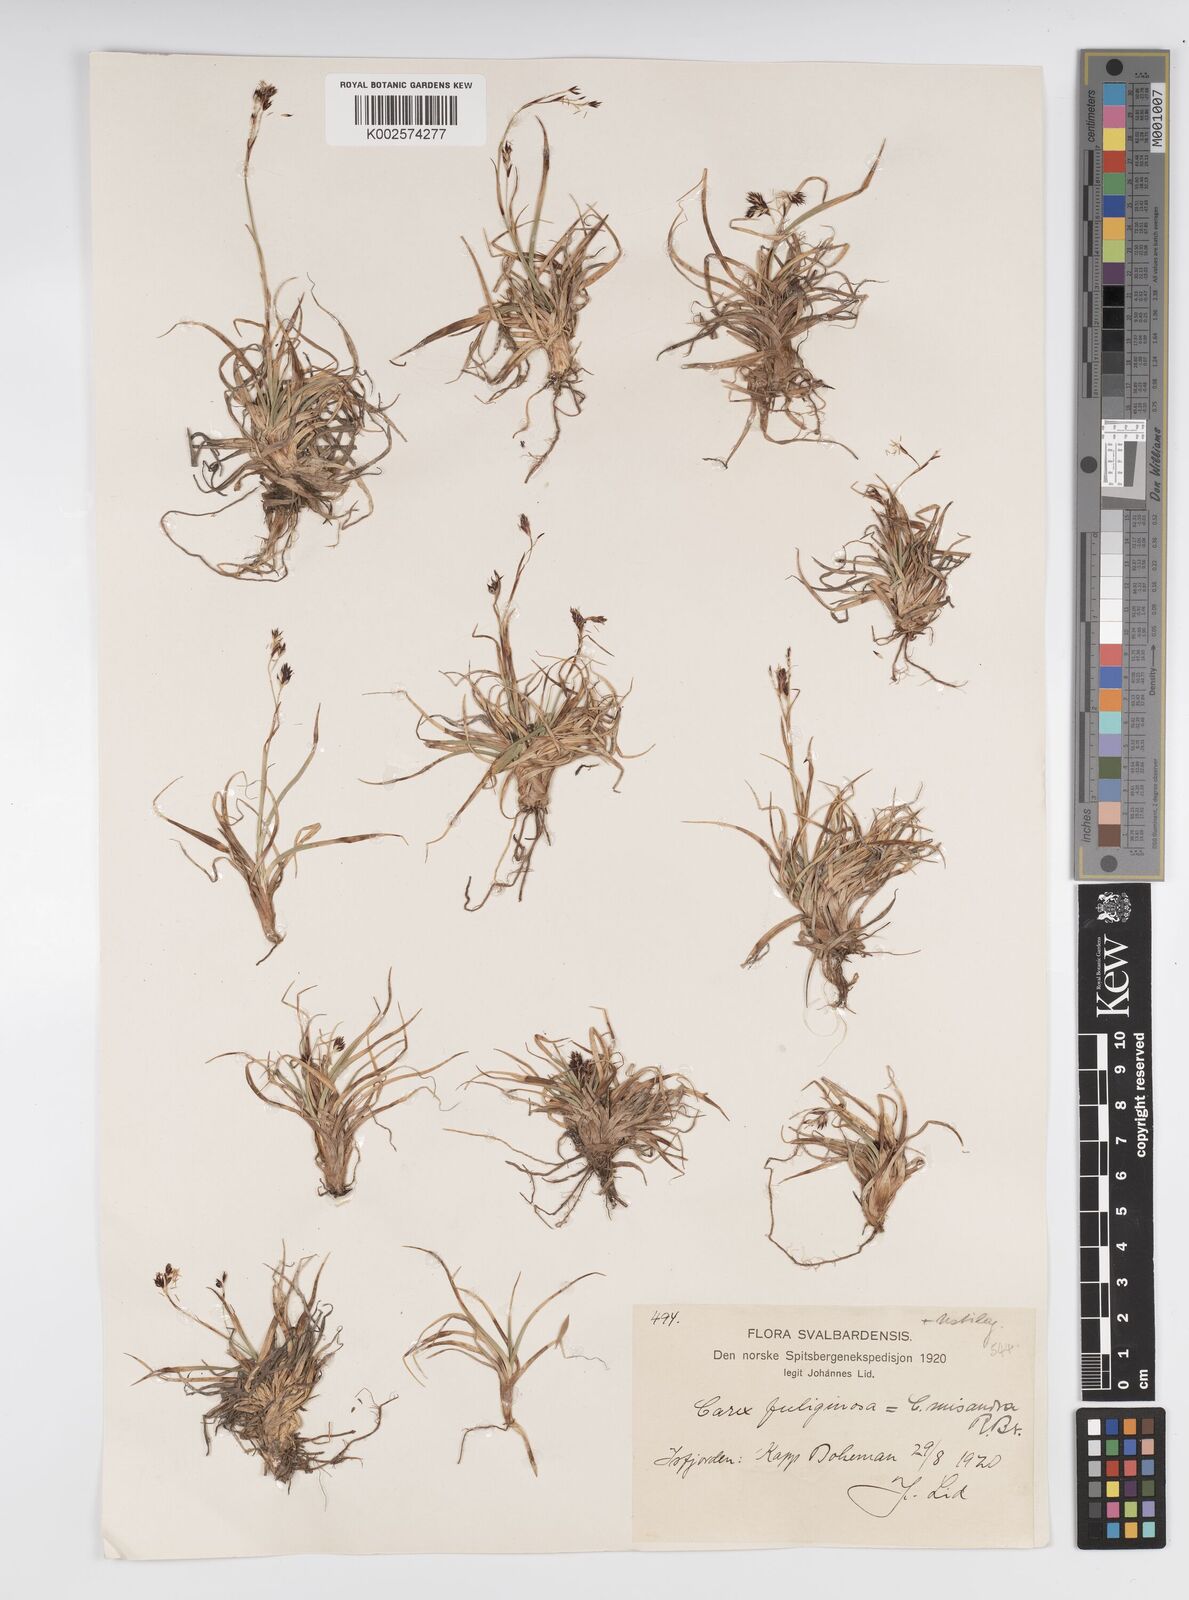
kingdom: Plantae
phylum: Tracheophyta
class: Liliopsida
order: Poales
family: Cyperaceae
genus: Carex
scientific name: Carex fuliginosa
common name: Few-flowered sedge
